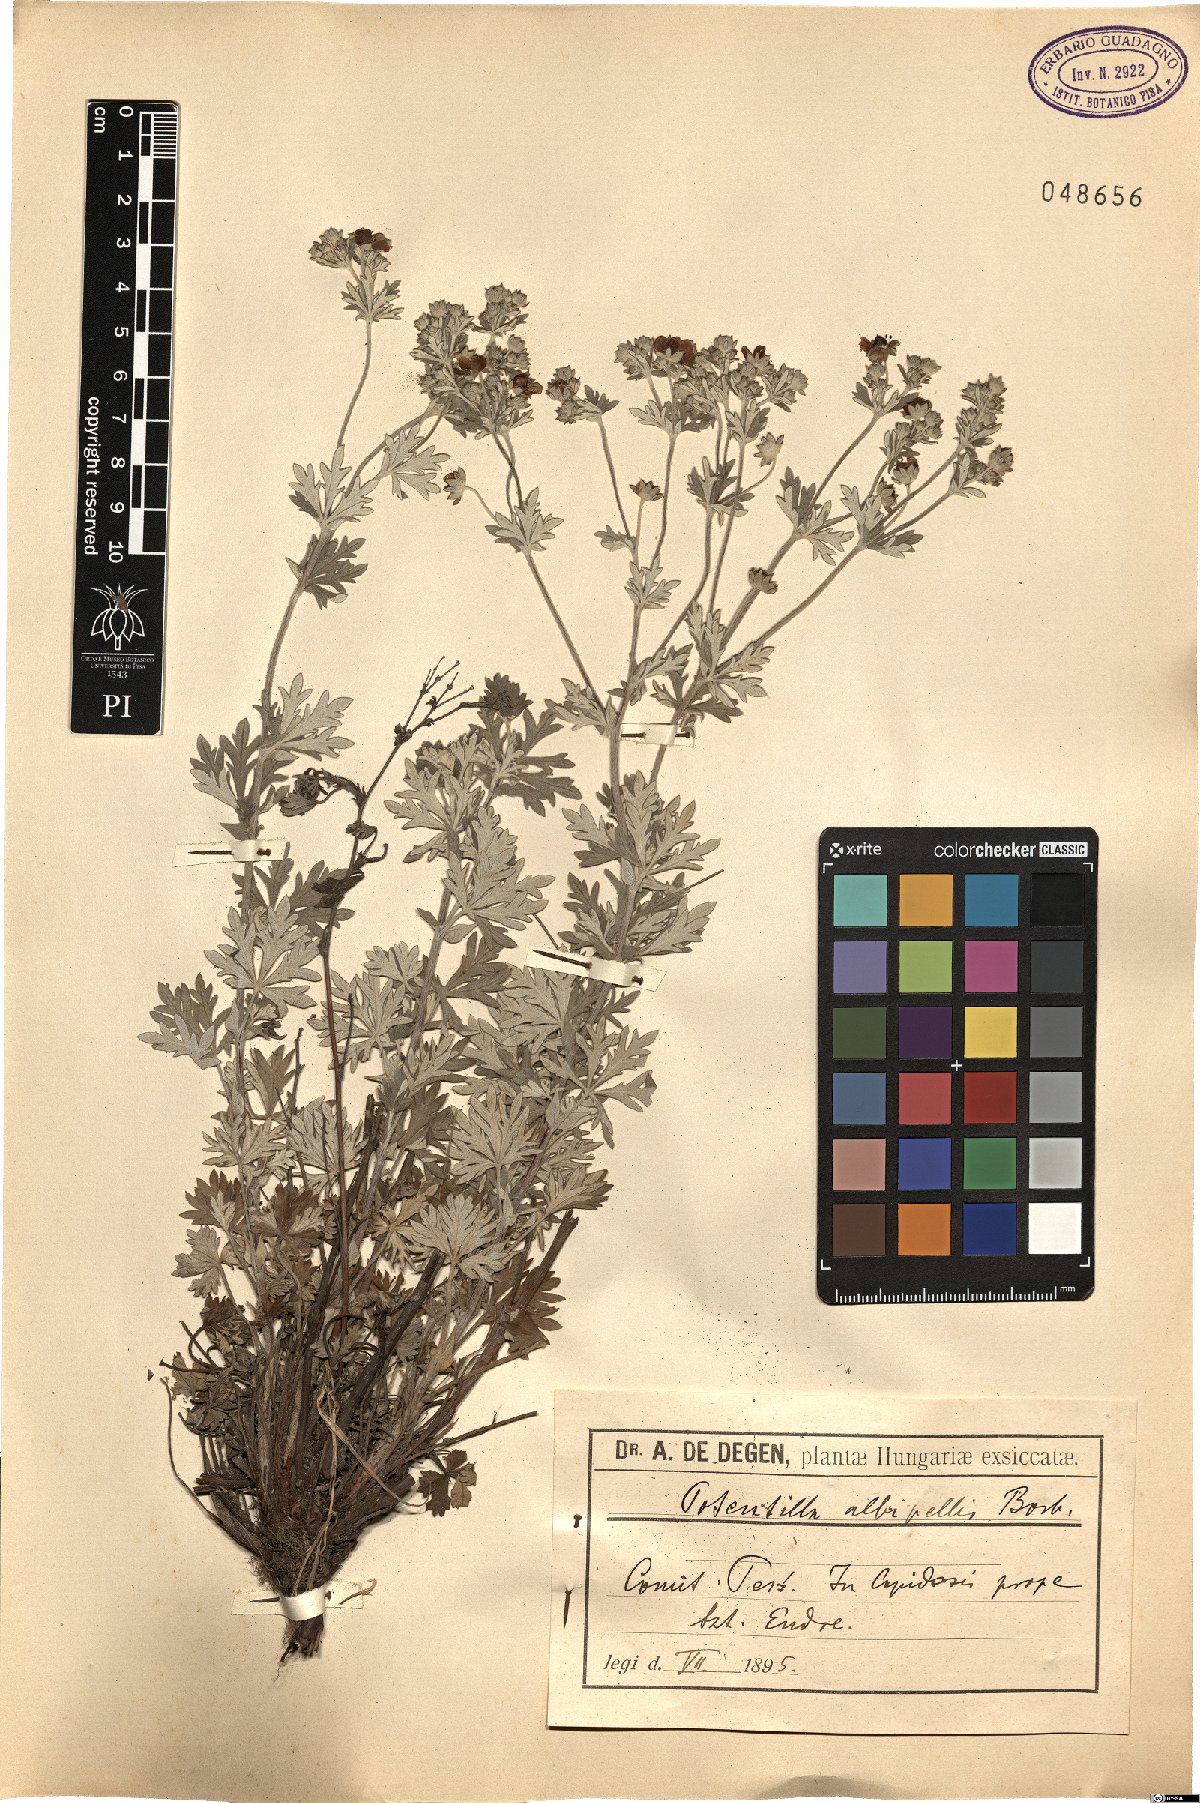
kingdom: Plantae
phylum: Tracheophyta
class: Magnoliopsida
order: Rosales
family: Rosaceae
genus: Potentilla
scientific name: Potentilla neglecta
